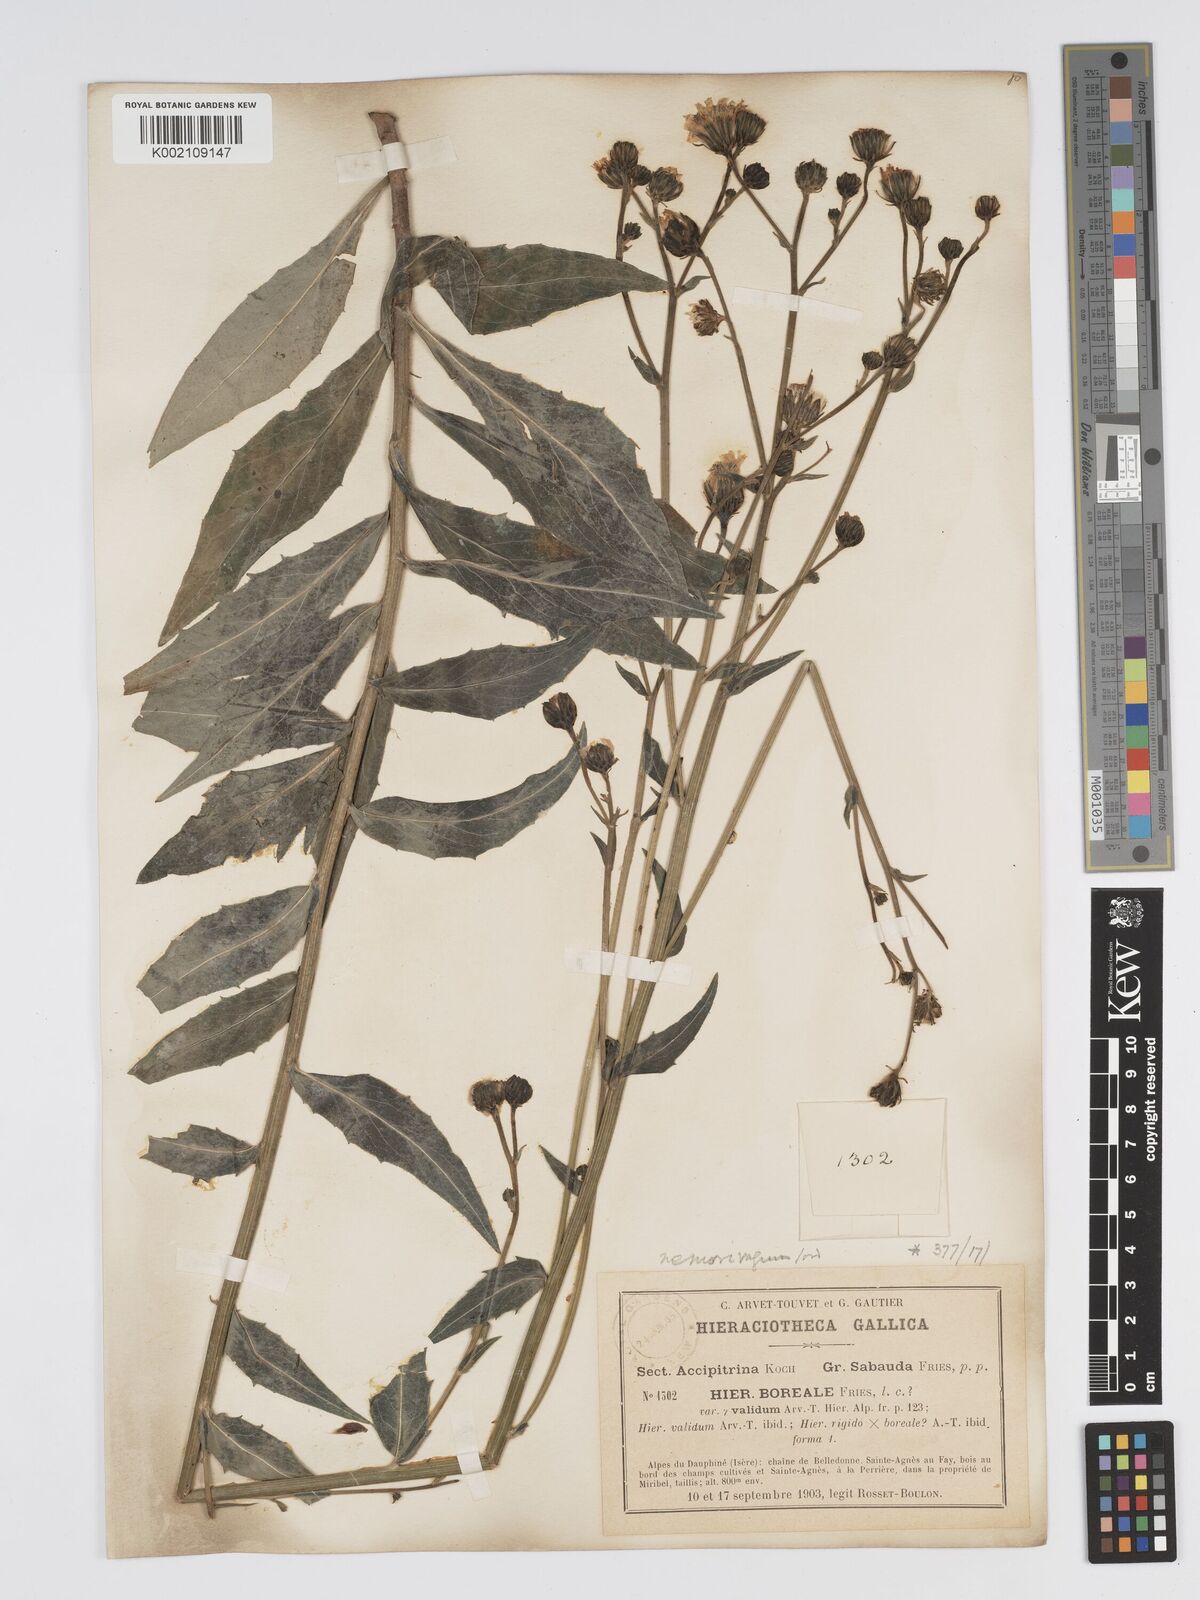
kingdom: Plantae
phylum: Tracheophyta
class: Magnoliopsida
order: Asterales
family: Asteraceae
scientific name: Asteraceae
